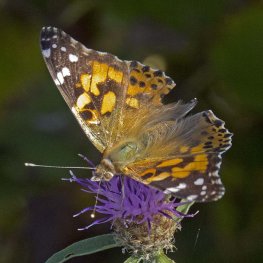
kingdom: Animalia
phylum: Arthropoda
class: Insecta
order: Lepidoptera
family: Nymphalidae
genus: Vanessa
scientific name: Vanessa cardui
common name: Painted Lady
